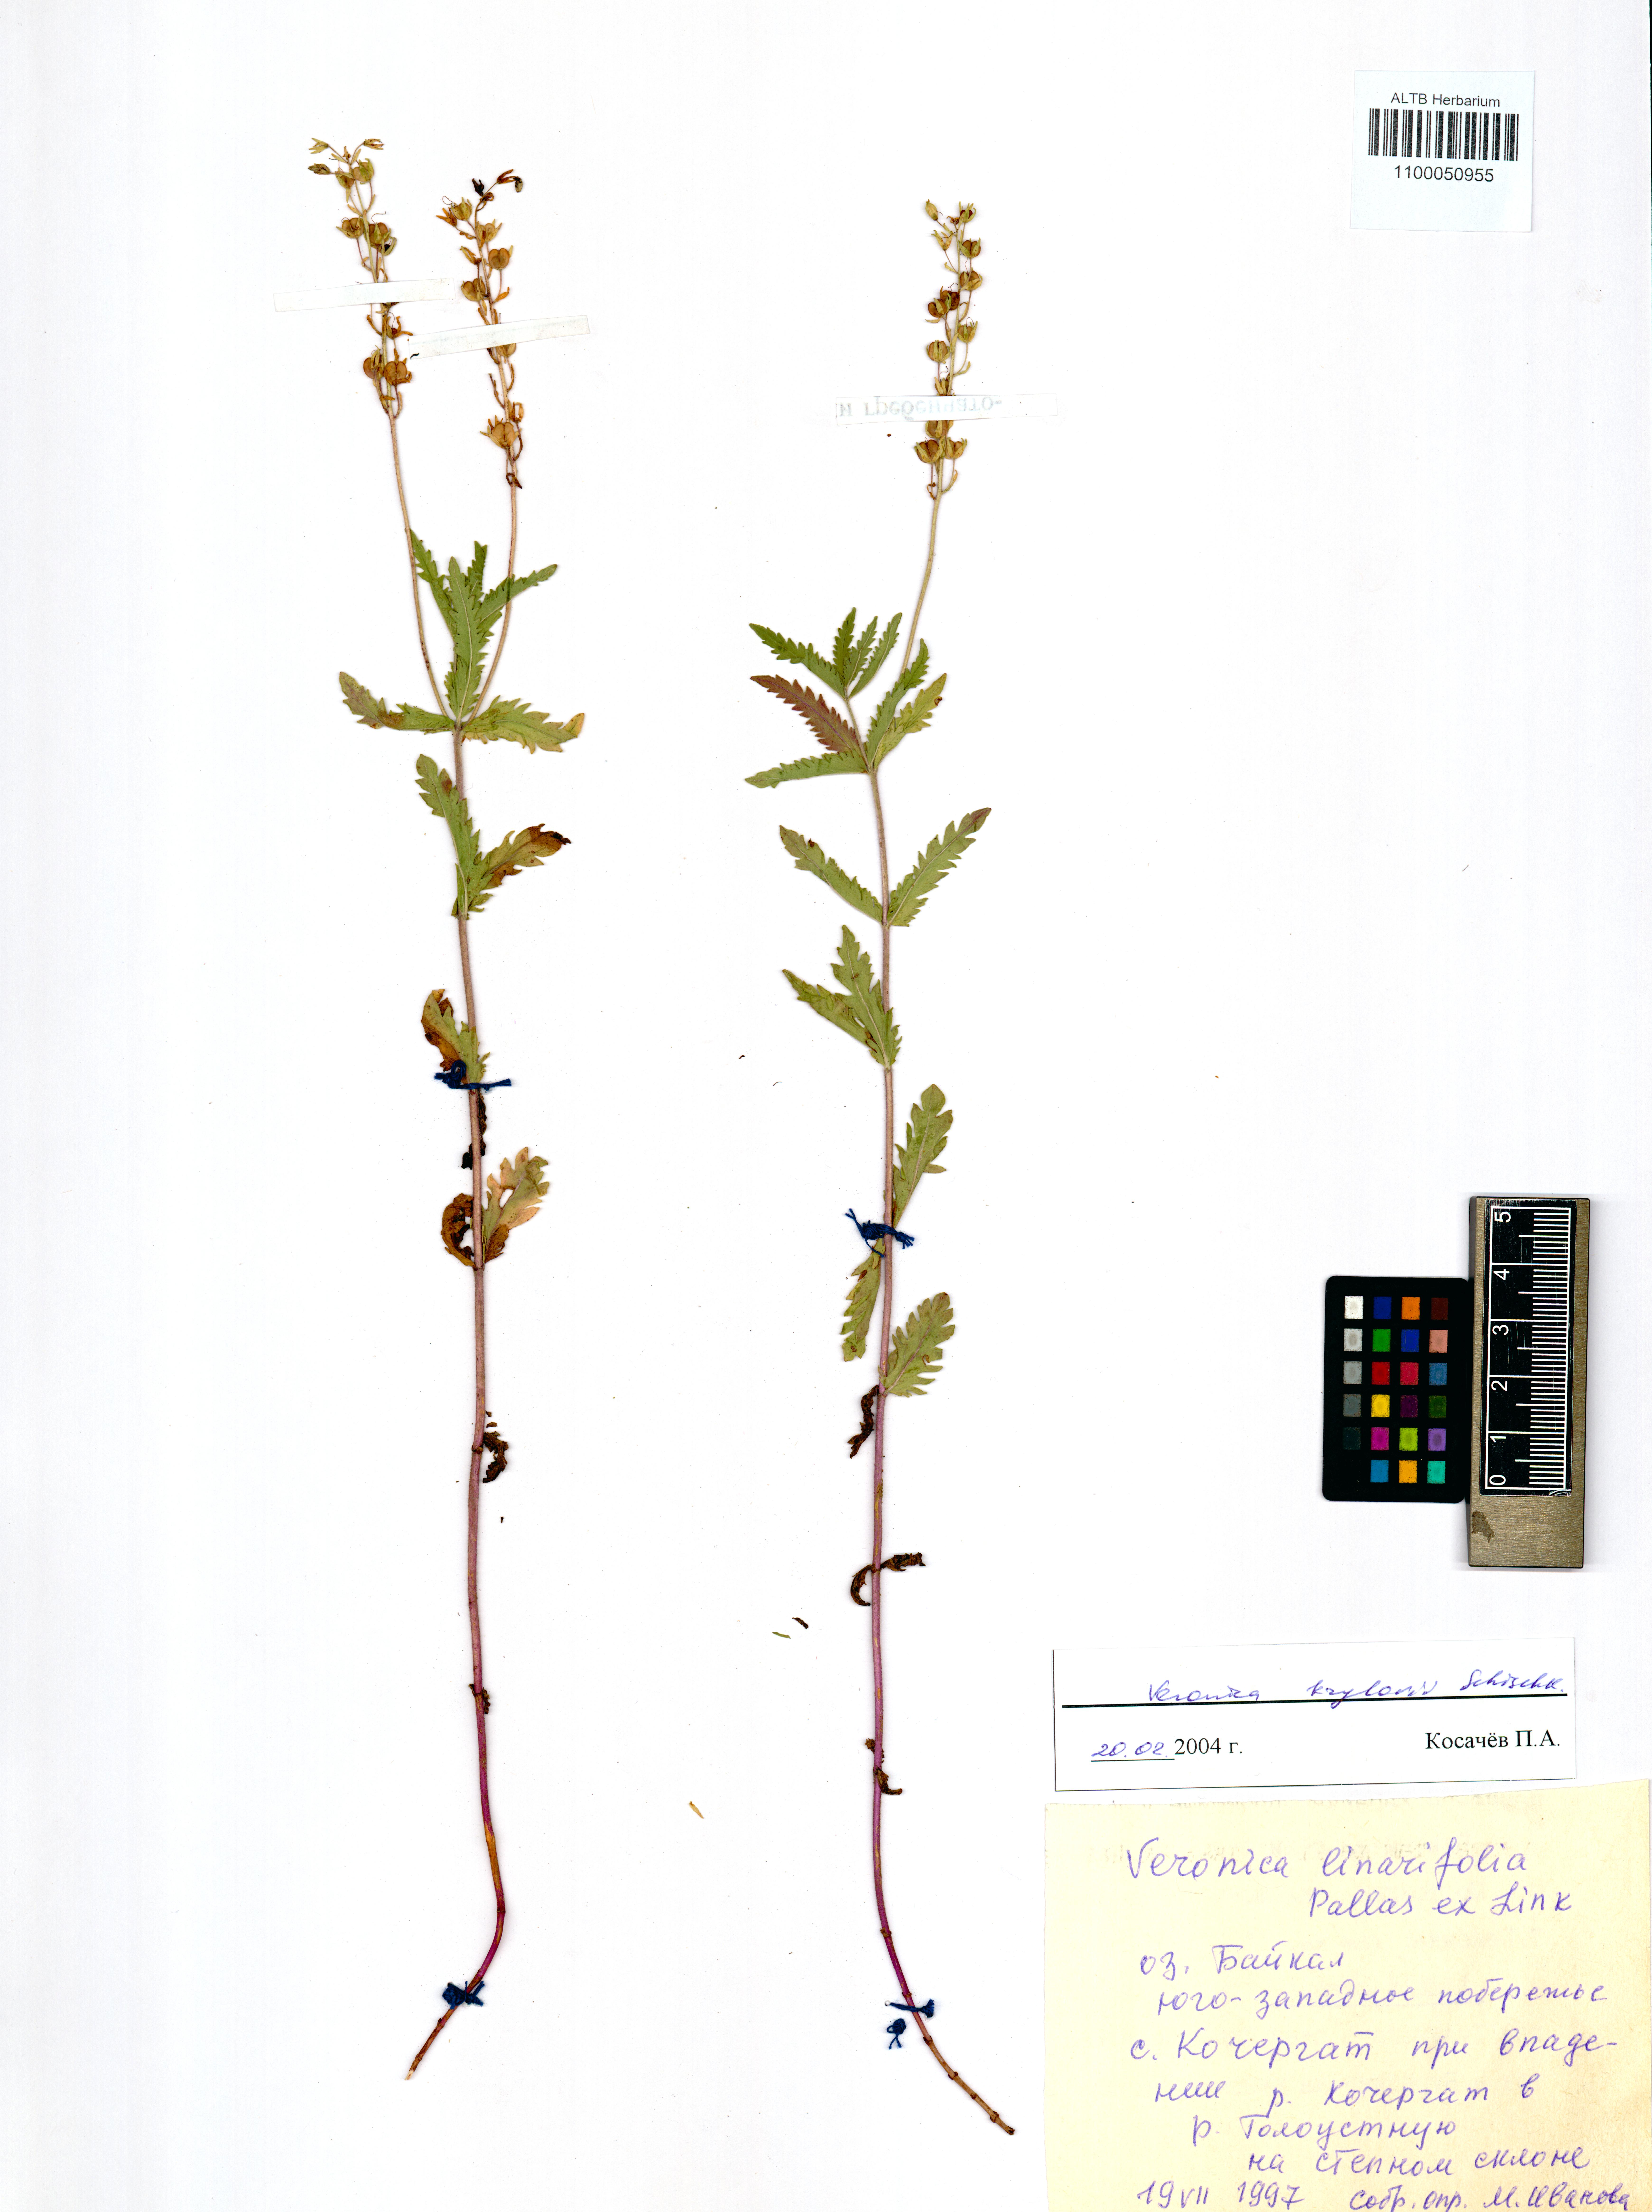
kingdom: Plantae
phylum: Tracheophyta
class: Magnoliopsida
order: Lamiales
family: Plantaginaceae
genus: Veronica
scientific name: Veronica krylovii
